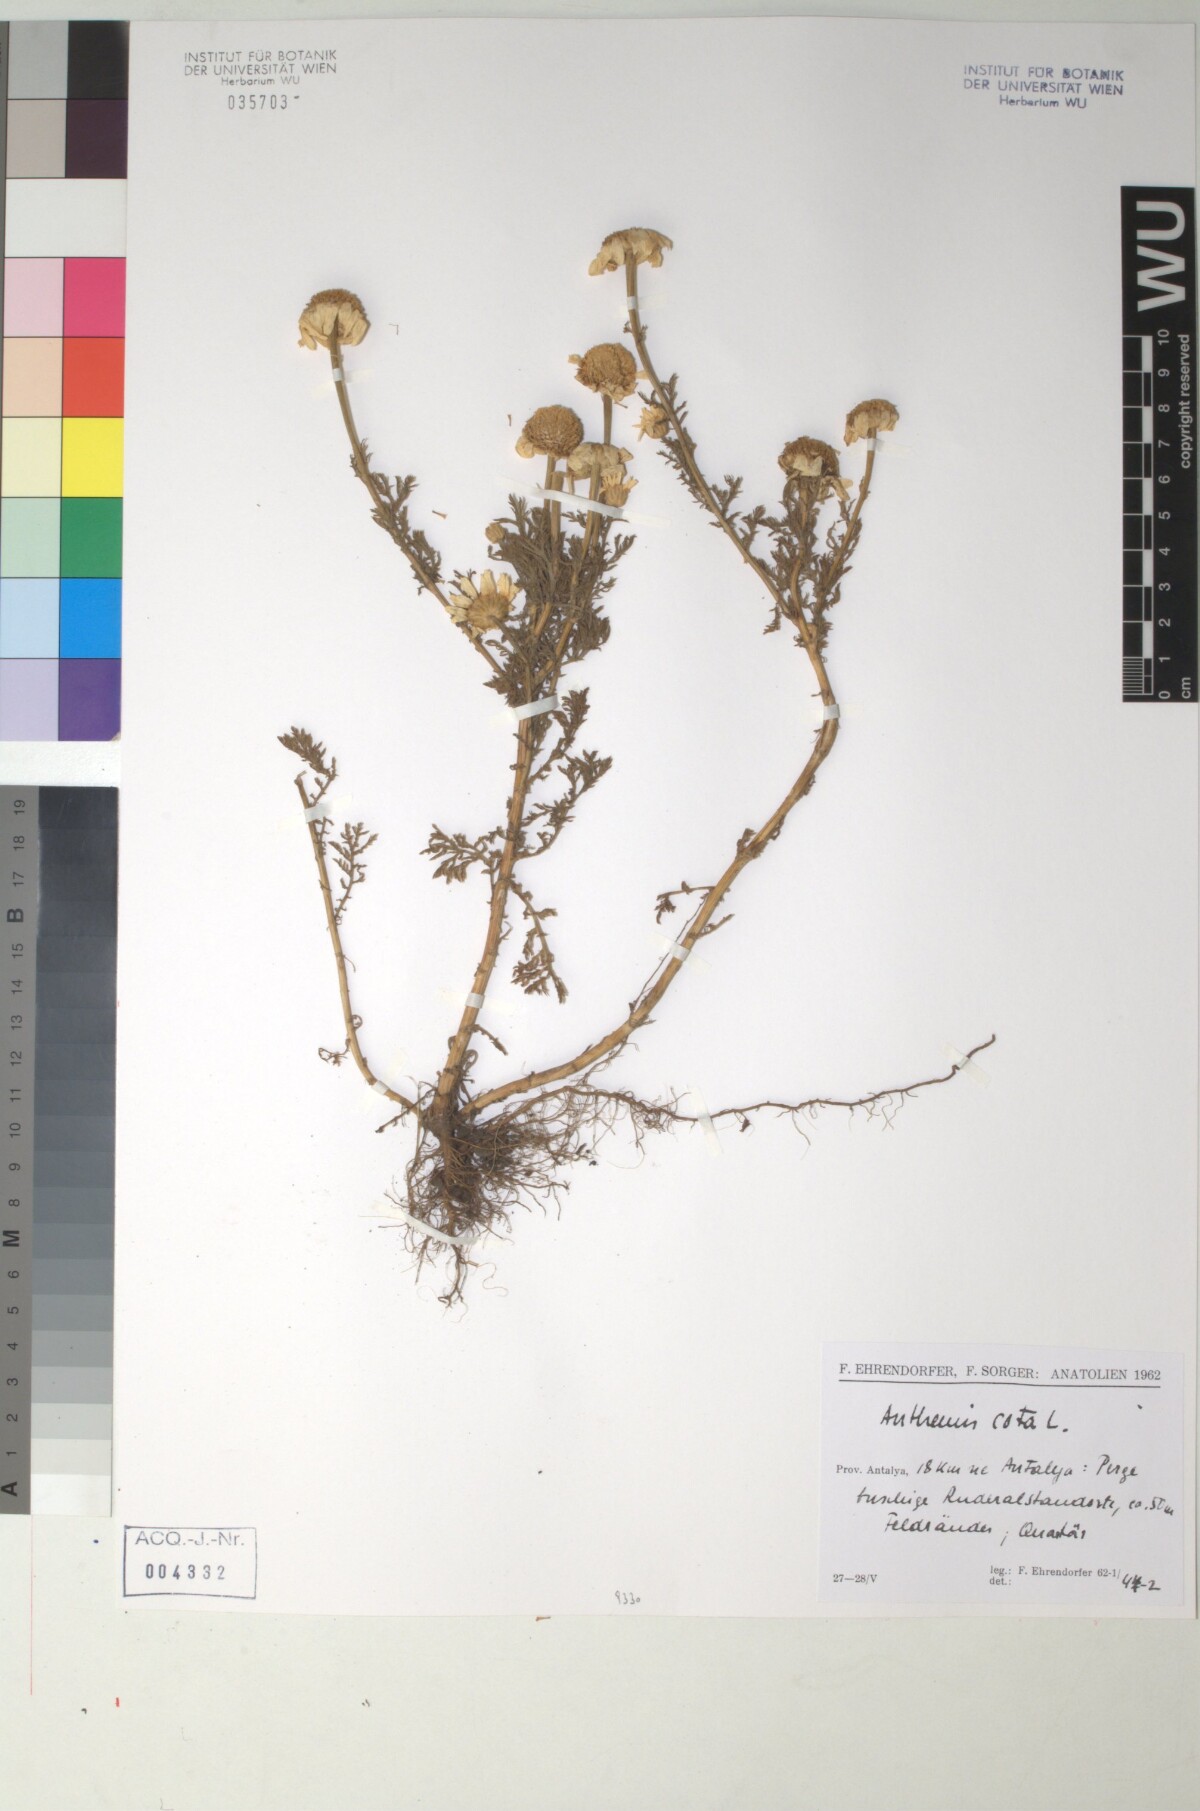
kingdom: Plantae
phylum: Tracheophyta
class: Magnoliopsida
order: Asterales
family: Asteraceae
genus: Cota
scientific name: Cota altissima
